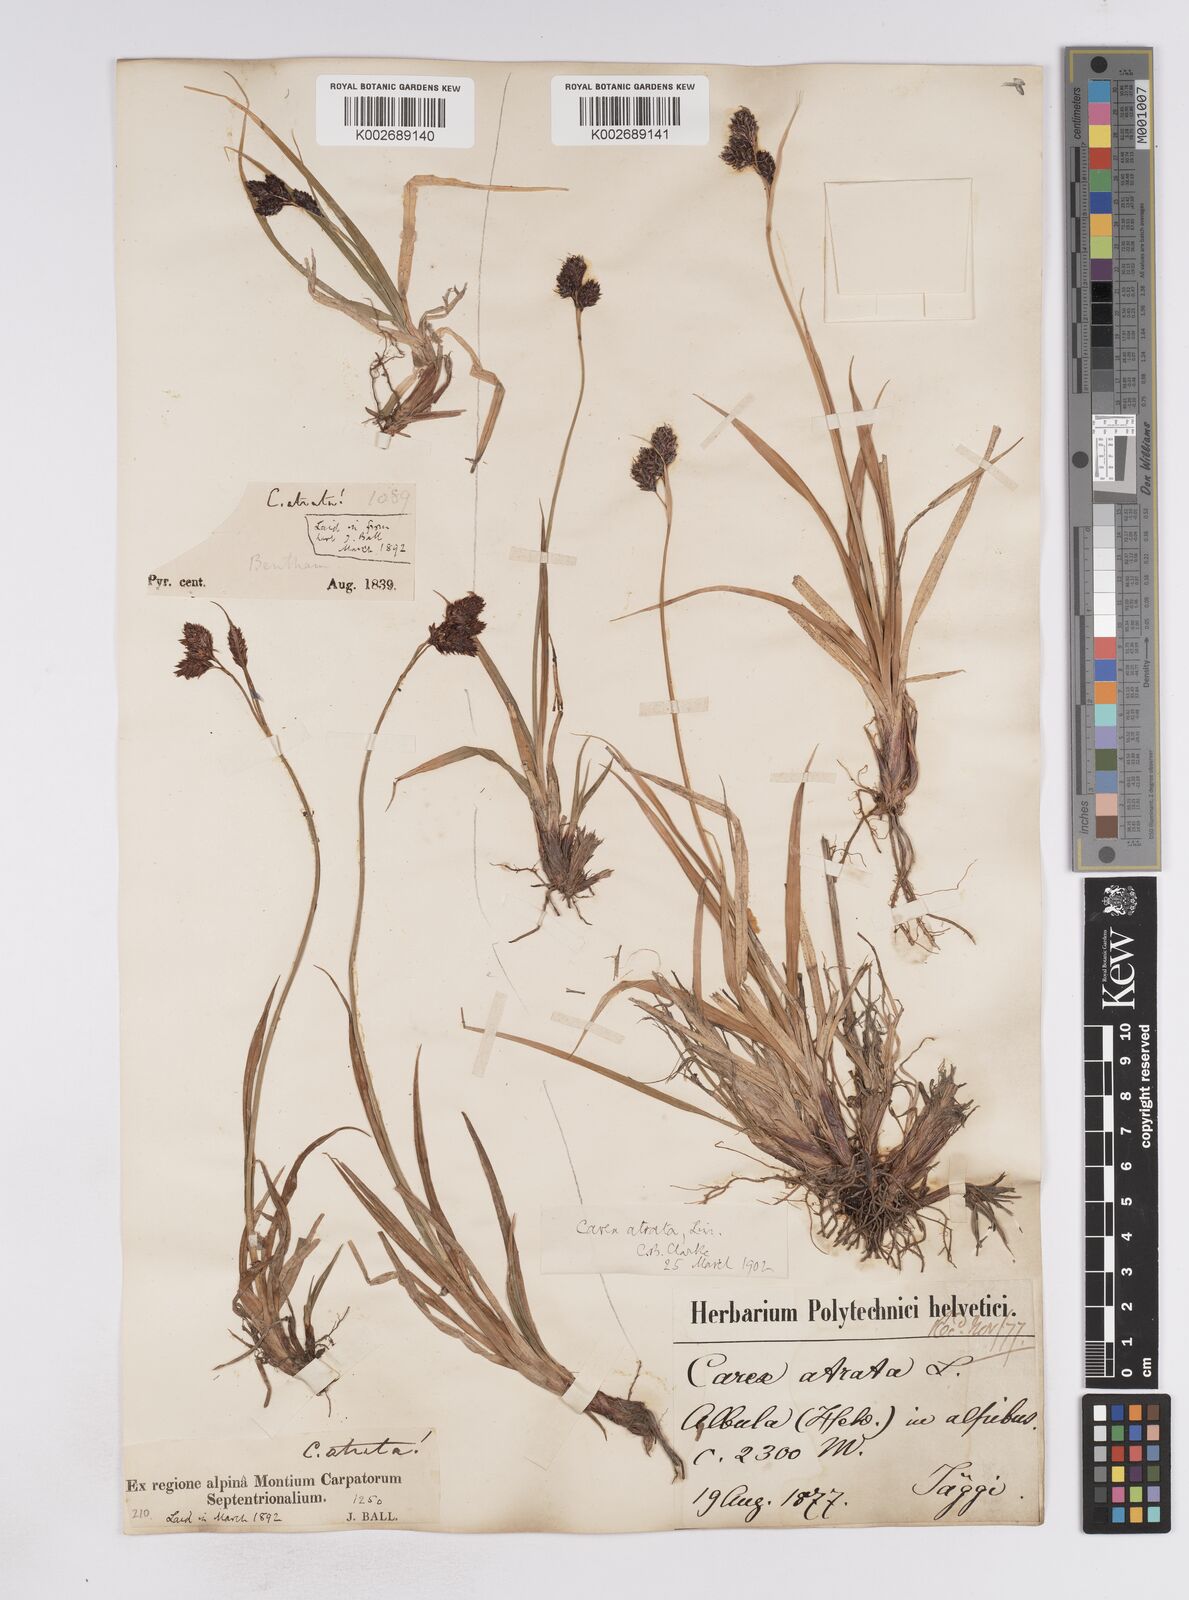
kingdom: Plantae
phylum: Tracheophyta
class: Liliopsida
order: Poales
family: Cyperaceae
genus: Carex
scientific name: Carex aterrima
